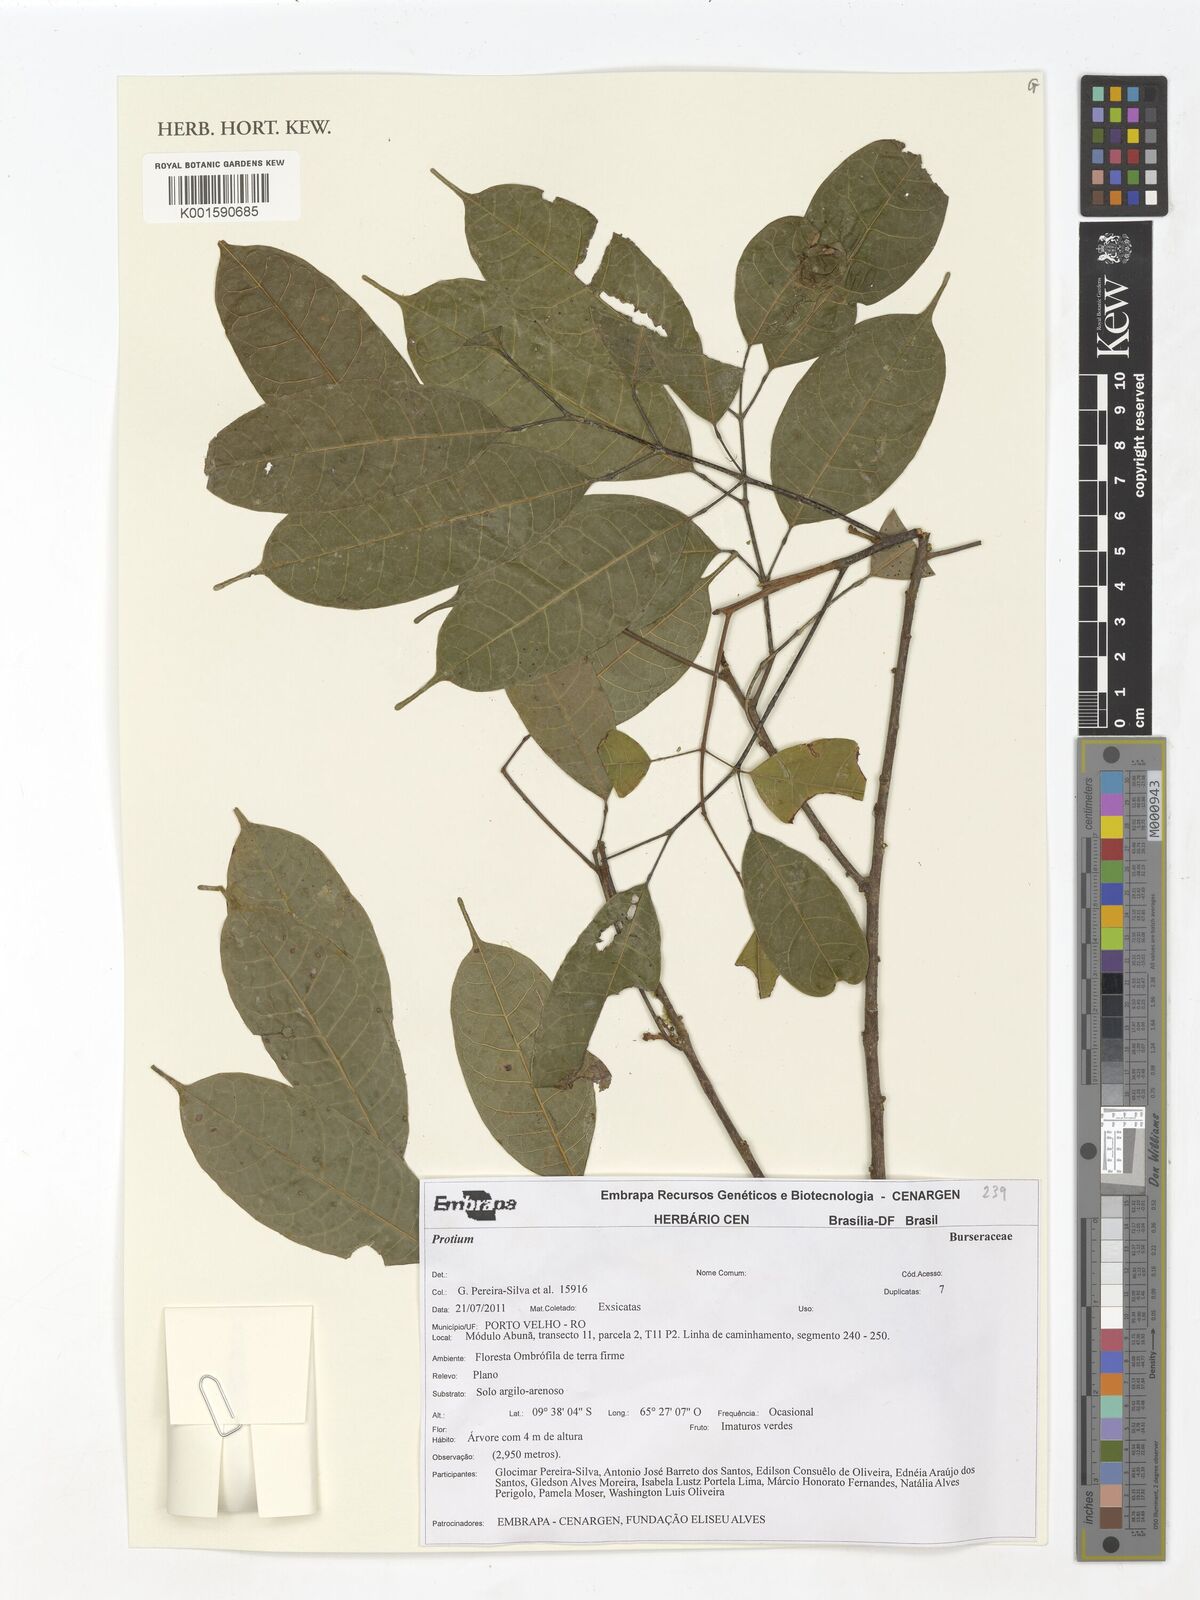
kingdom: Plantae
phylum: Tracheophyta
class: Magnoliopsida
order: Sapindales
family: Burseraceae
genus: Protium
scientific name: Protium
